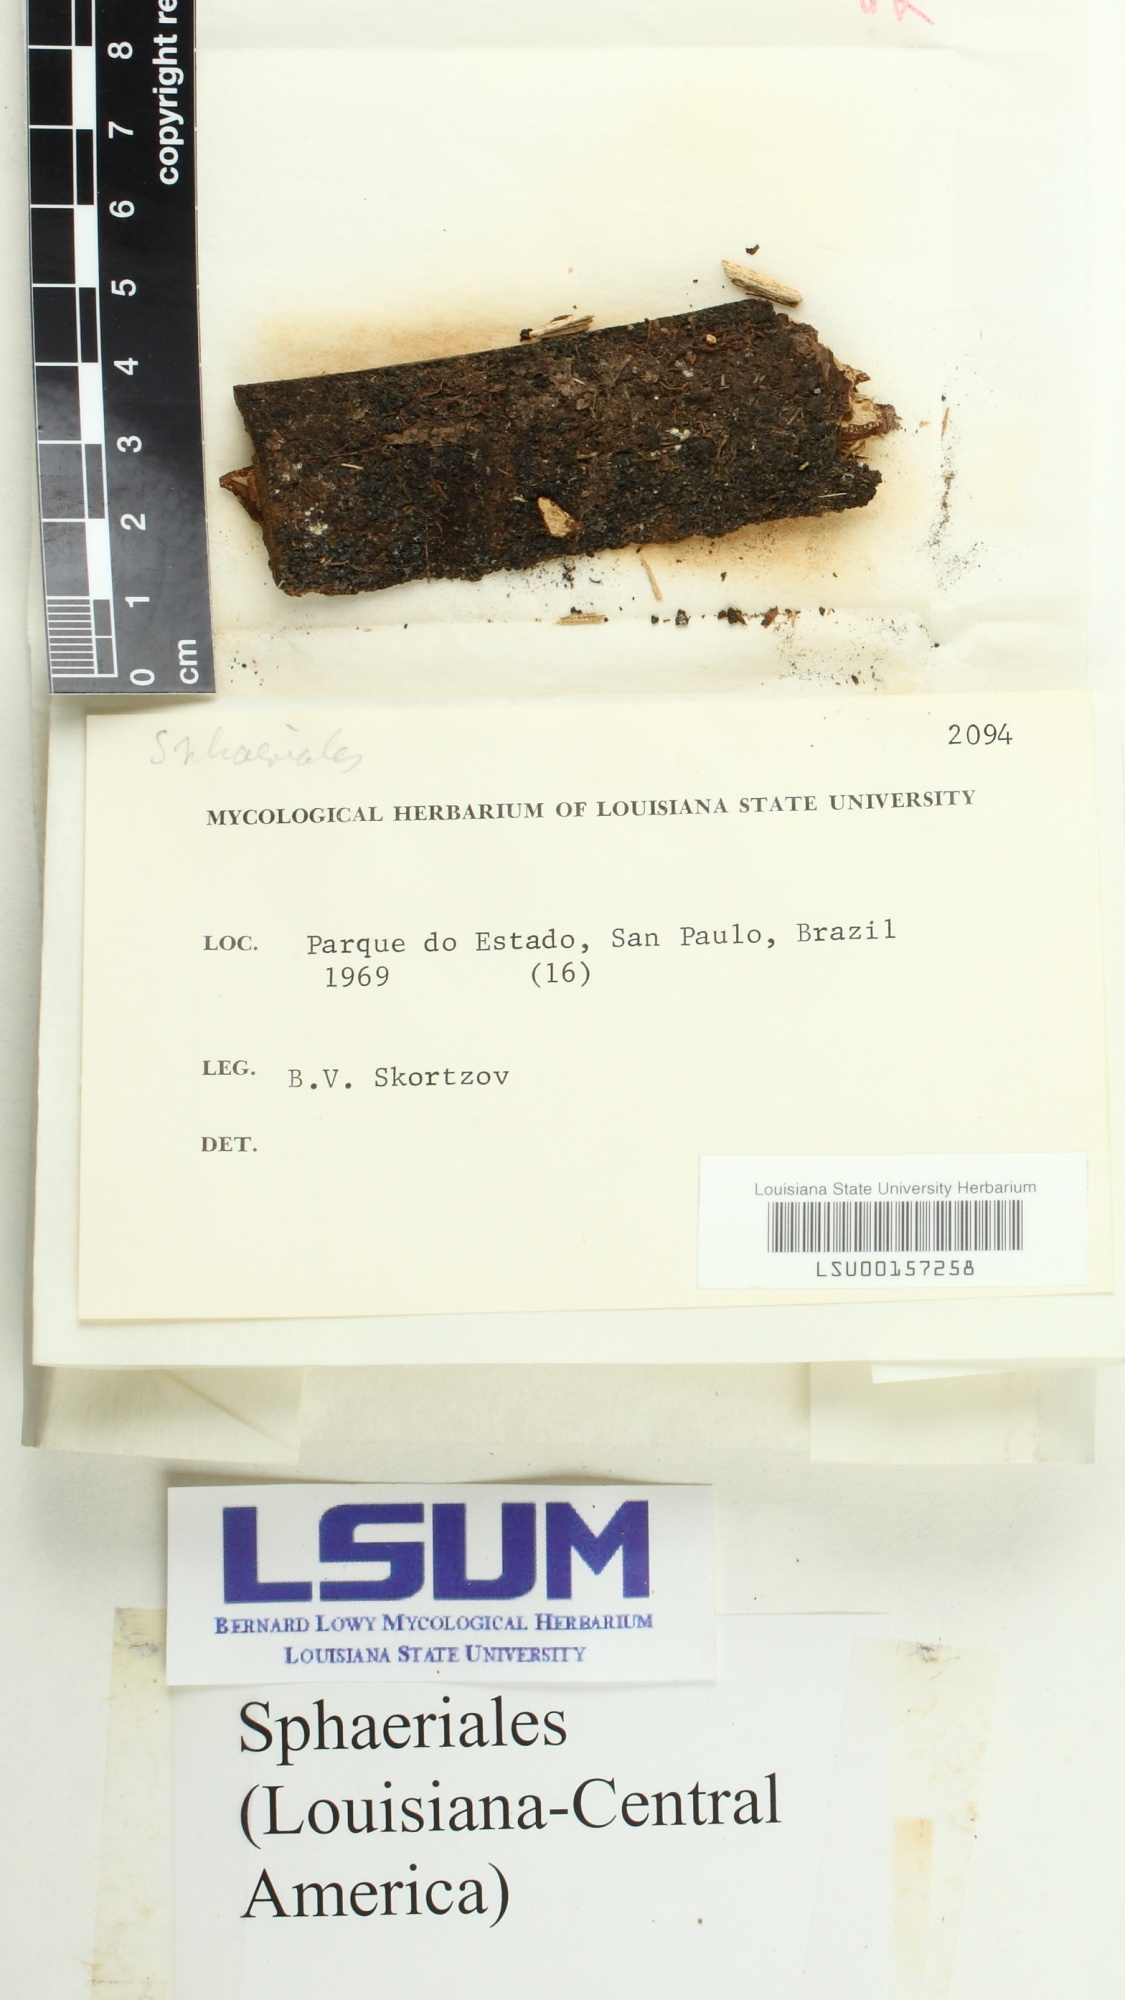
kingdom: Fungi
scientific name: Fungi
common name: Fungi
